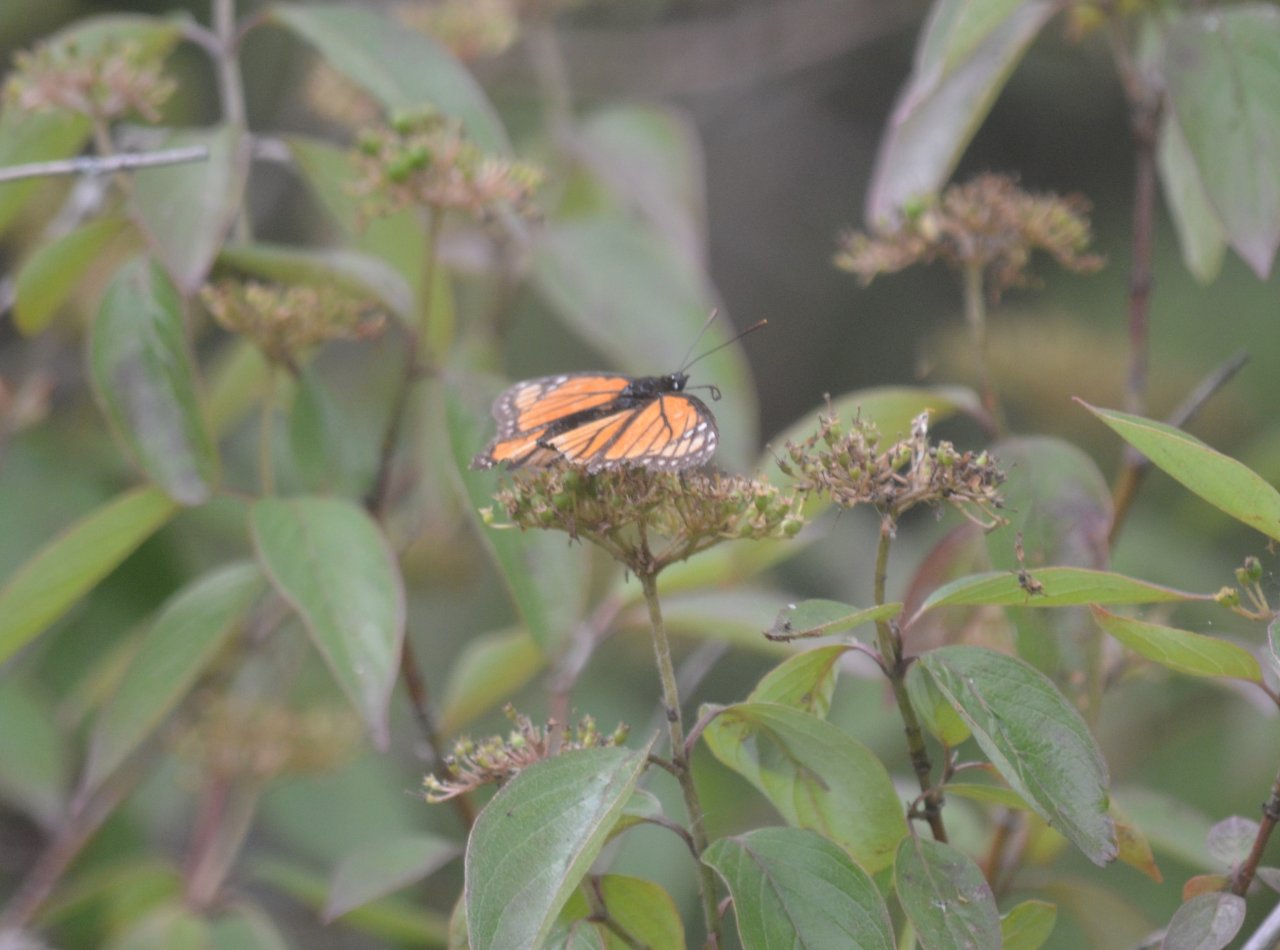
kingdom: Animalia
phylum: Arthropoda
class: Insecta
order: Lepidoptera
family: Nymphalidae
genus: Limenitis
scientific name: Limenitis archippus
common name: Viceroy
